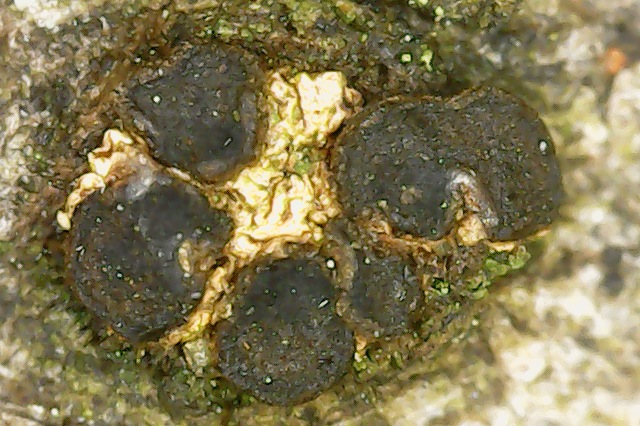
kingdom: Fungi
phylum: Ascomycota
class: Leotiomycetes
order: Helotiales
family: Dermateaceae
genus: Dermea
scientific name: Dermea cerasi
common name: kirsebær-klyngeskive
